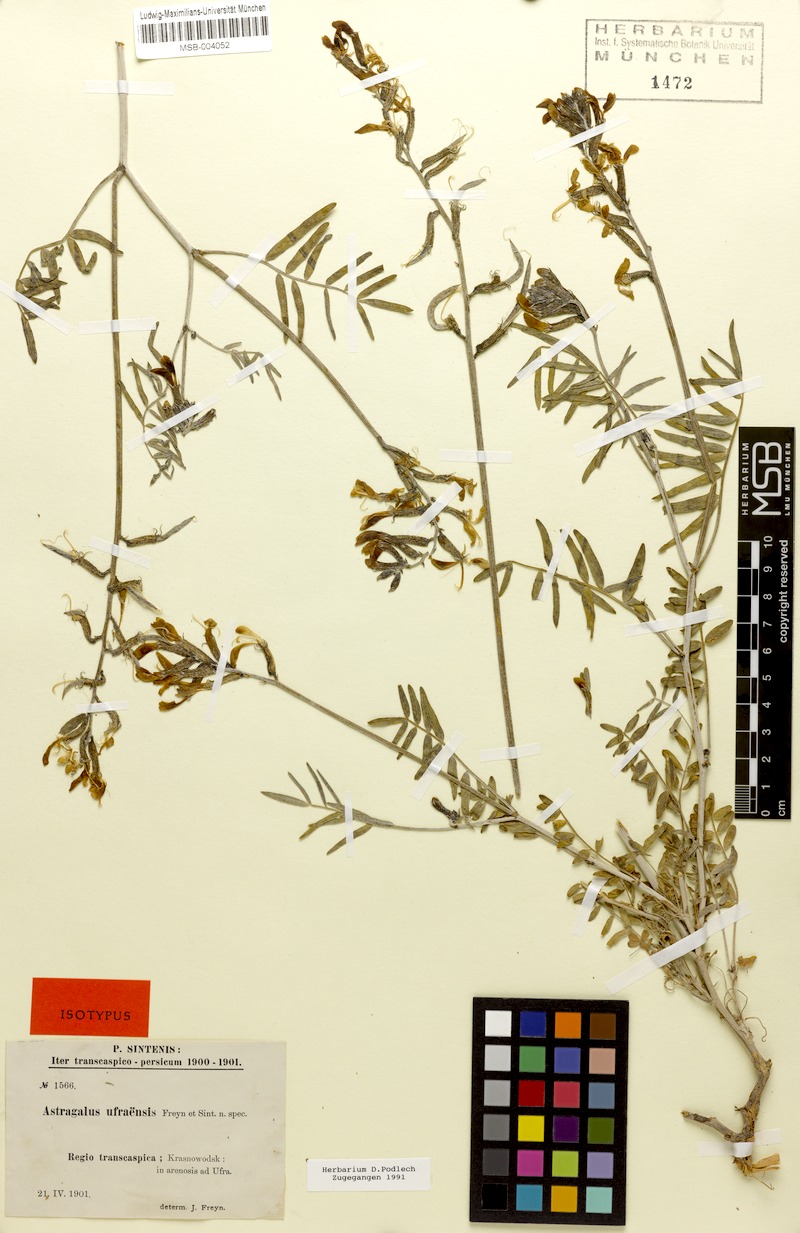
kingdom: Plantae
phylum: Tracheophyta
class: Magnoliopsida
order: Fabales
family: Fabaceae
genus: Astragalus
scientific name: Astragalus juratzkanus
